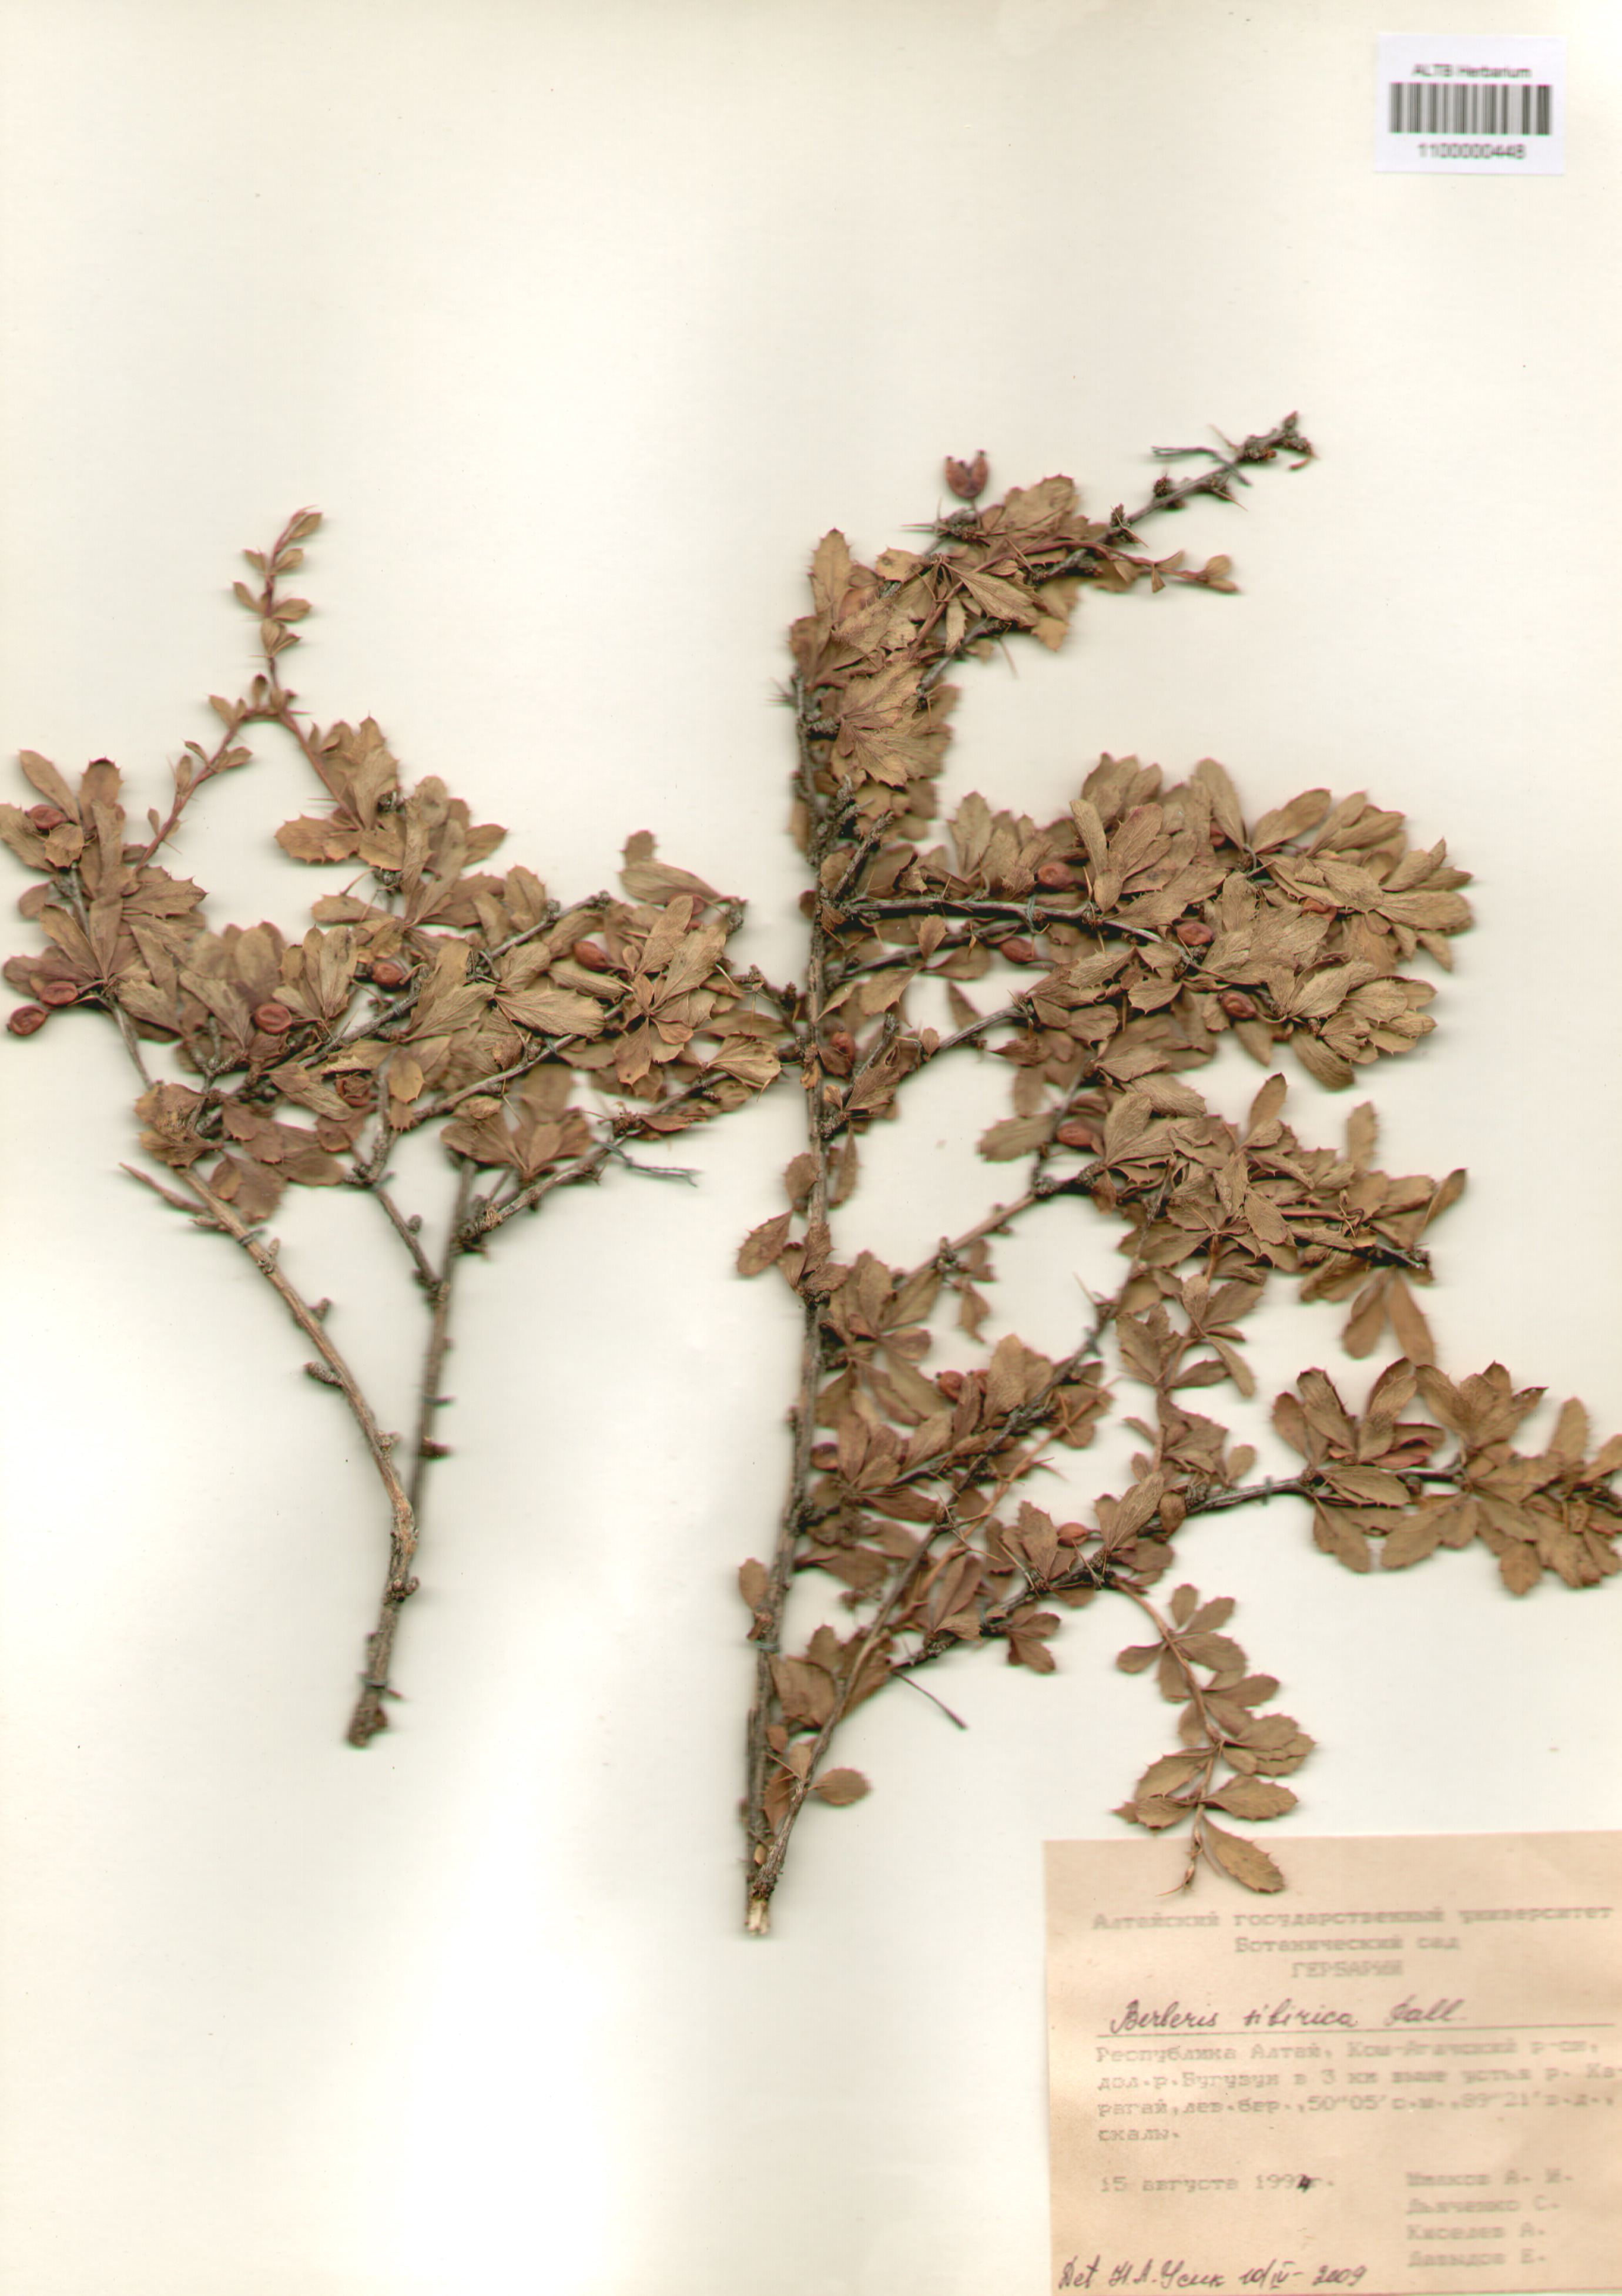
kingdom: Plantae
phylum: Tracheophyta
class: Magnoliopsida
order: Ranunculales
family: Berberidaceae
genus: Berberis
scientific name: Berberis sibirica
